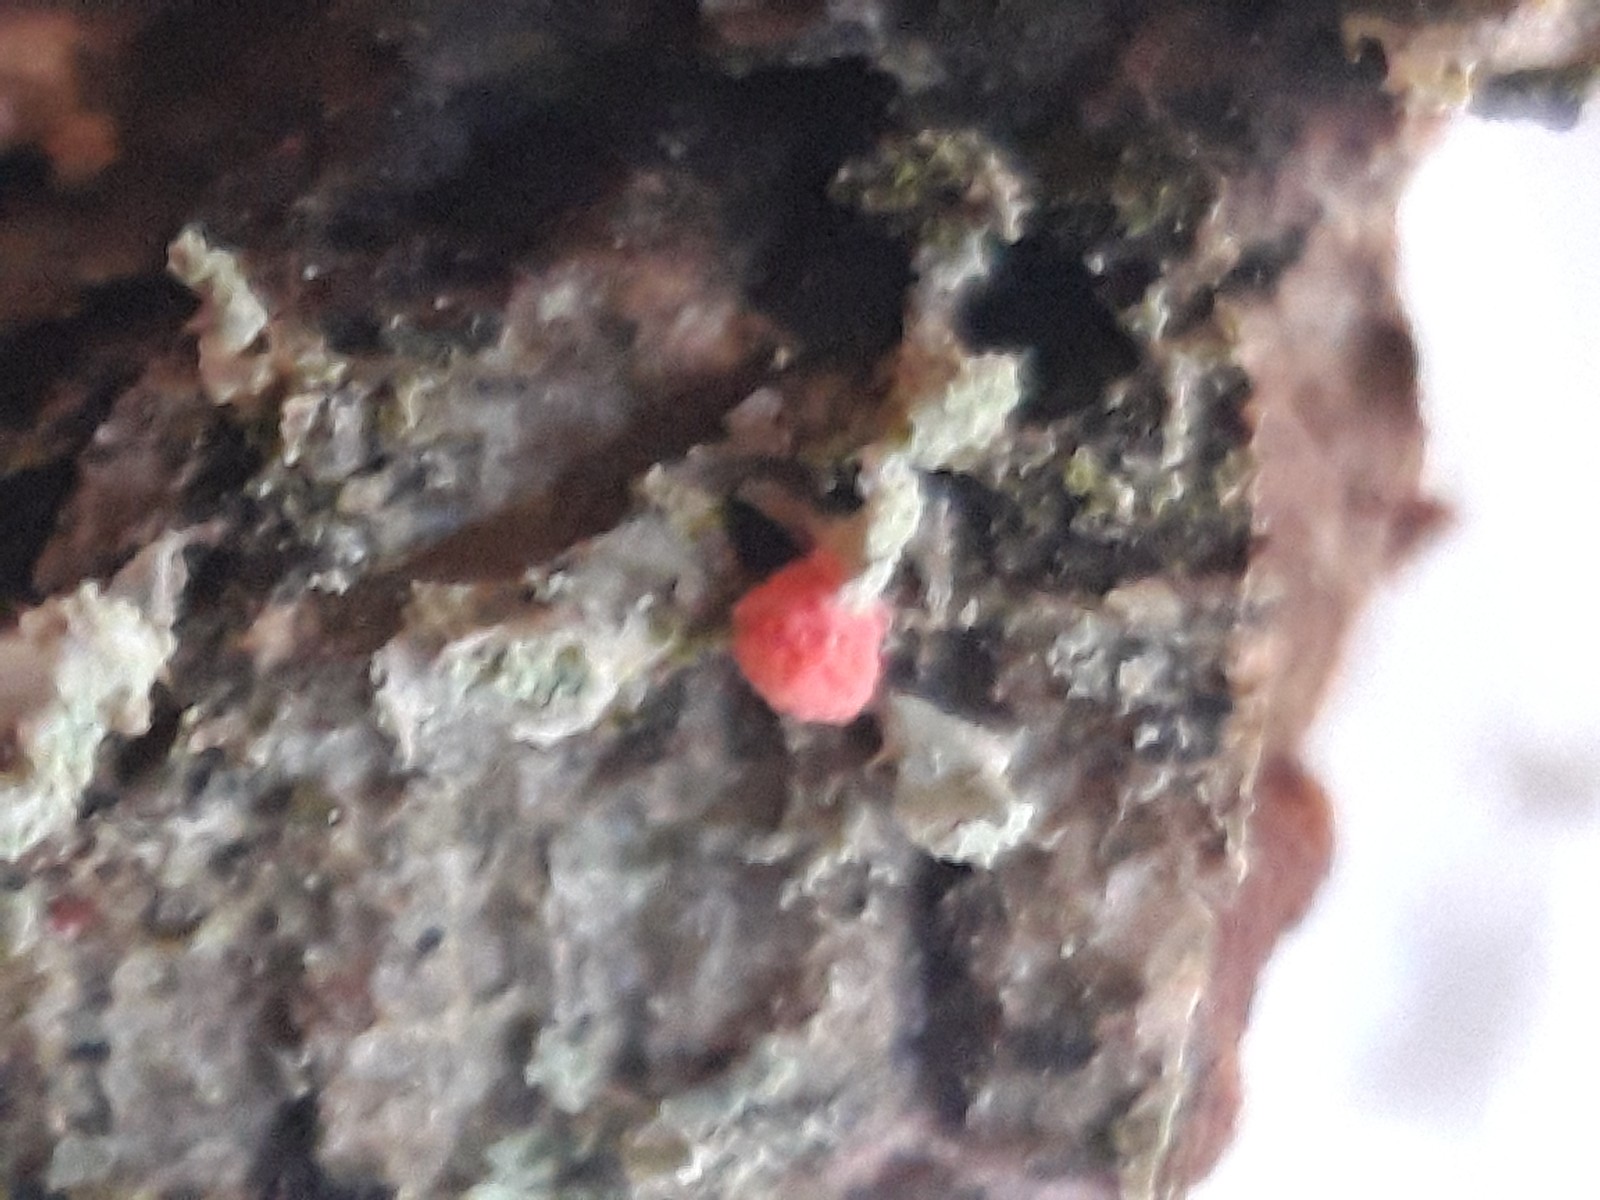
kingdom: Fungi
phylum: Ascomycota
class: Sordariomycetes
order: Hypocreales
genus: Illosporiopsis
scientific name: Illosporiopsis christiansenii
